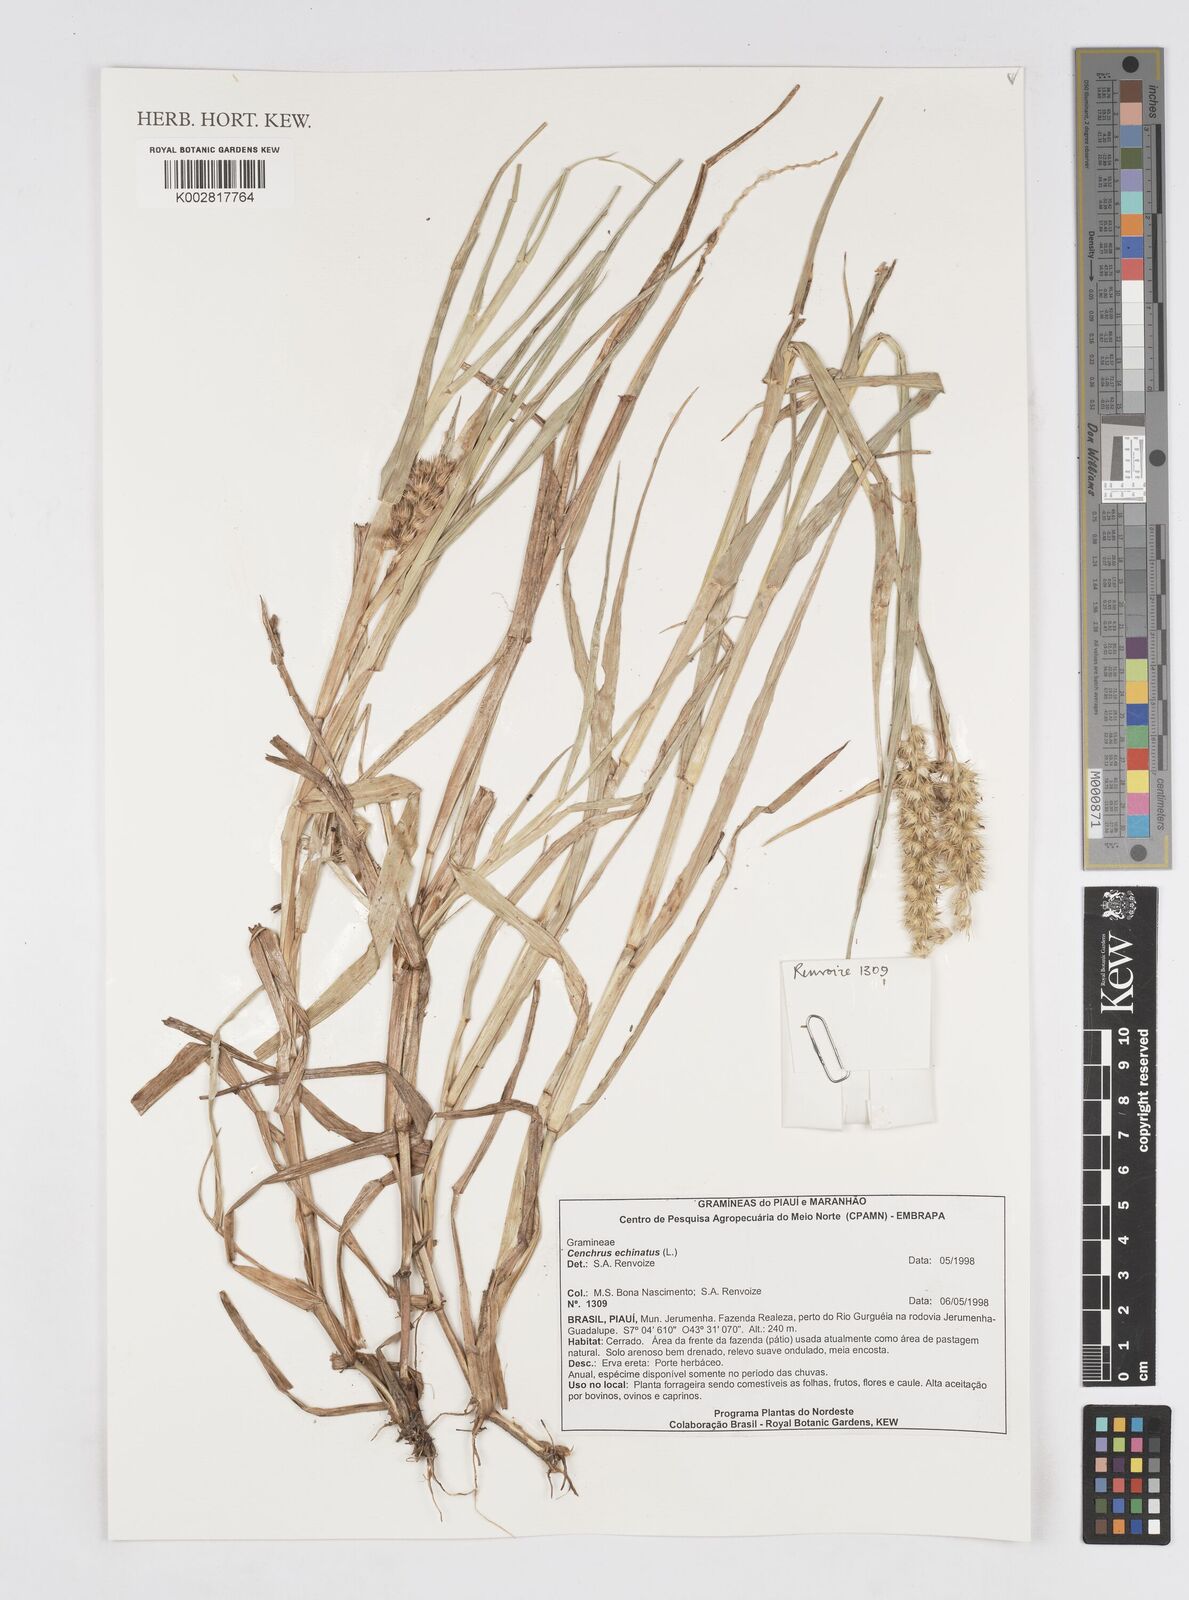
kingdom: Plantae
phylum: Tracheophyta
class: Liliopsida
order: Poales
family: Poaceae
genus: Cenchrus
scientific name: Cenchrus
